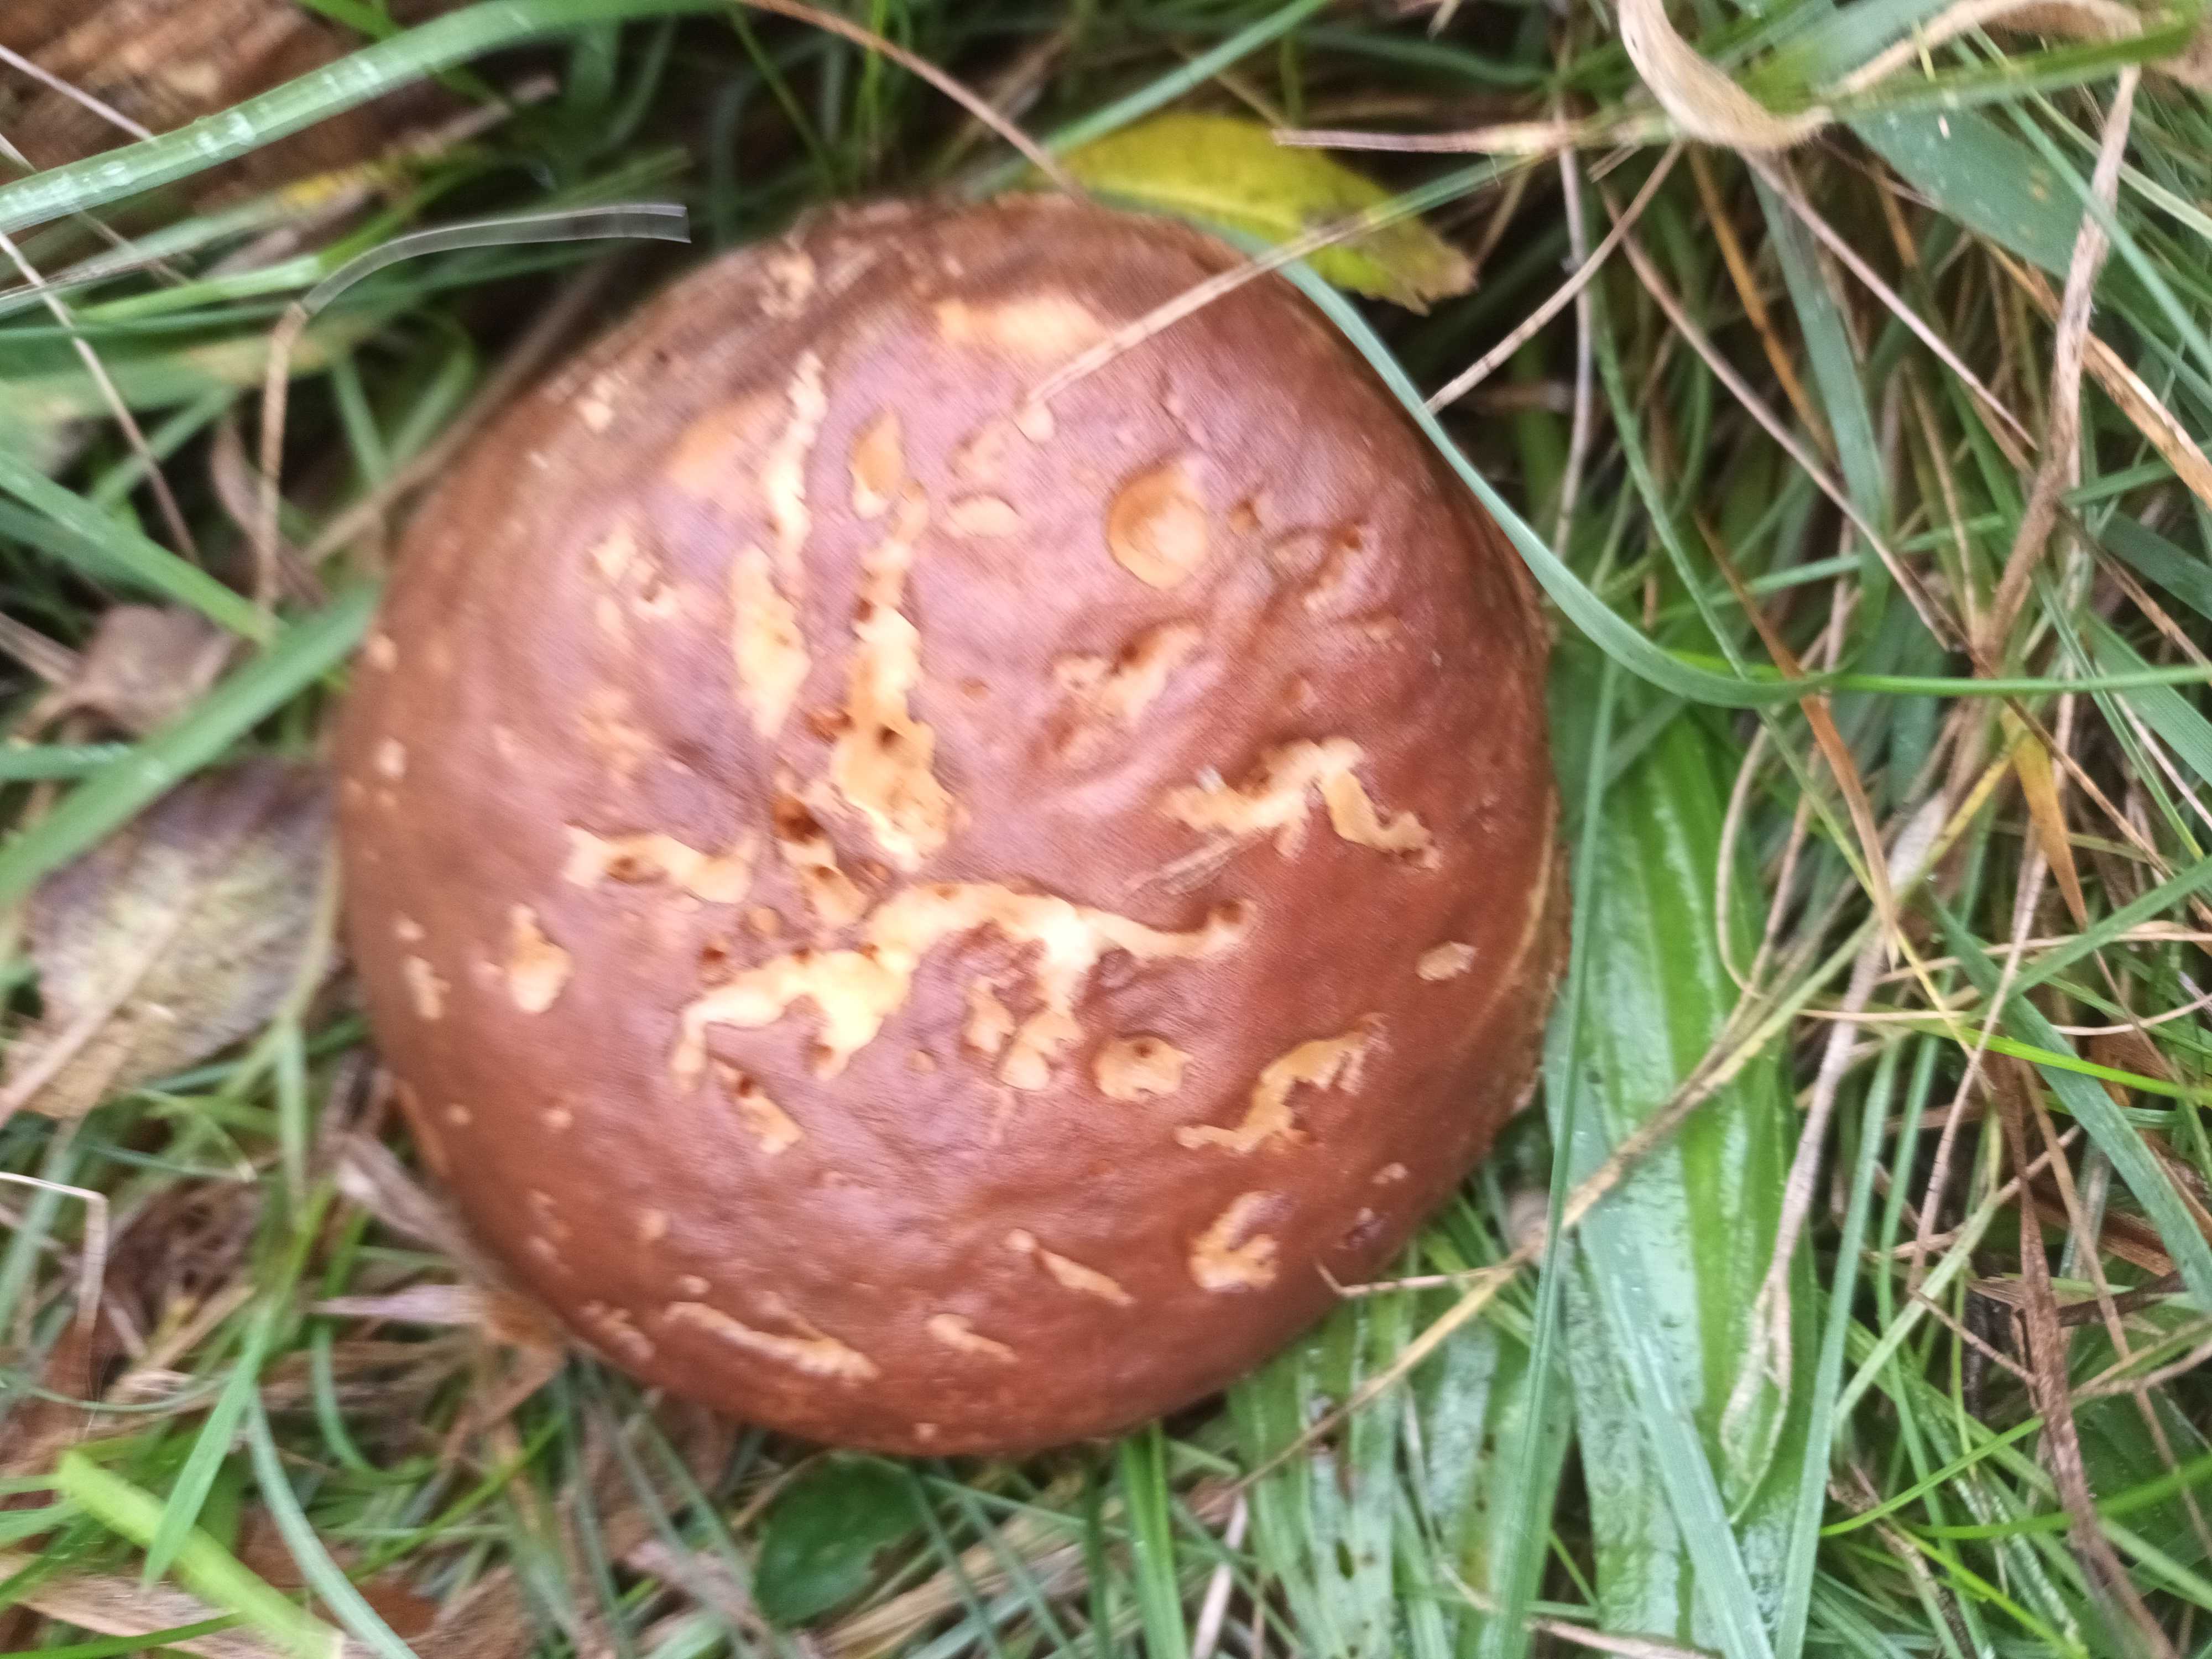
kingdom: Fungi
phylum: Basidiomycota
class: Agaricomycetes
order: Boletales
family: Boletaceae
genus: Chalciporus
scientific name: Chalciporus piperatus
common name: peberrørhat
